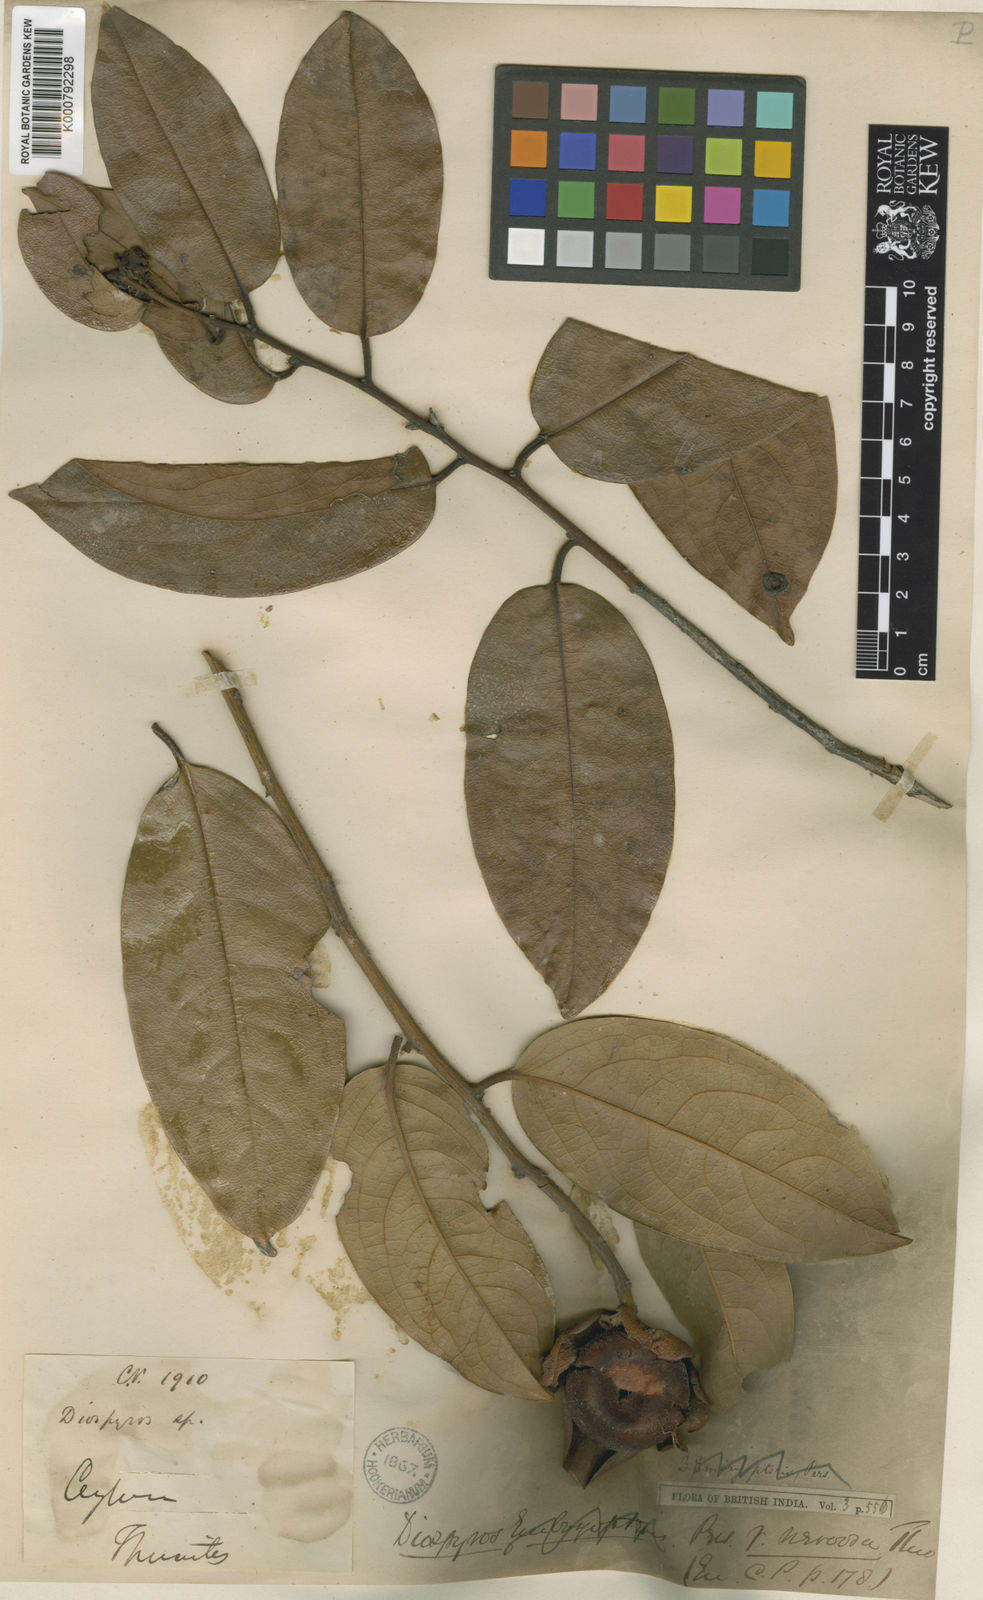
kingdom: Plantae
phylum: Tracheophyta
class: Magnoliopsida
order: Ericales
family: Ebenaceae
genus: Diospyros
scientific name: Diospyros malabarica
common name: Mountain ebony
